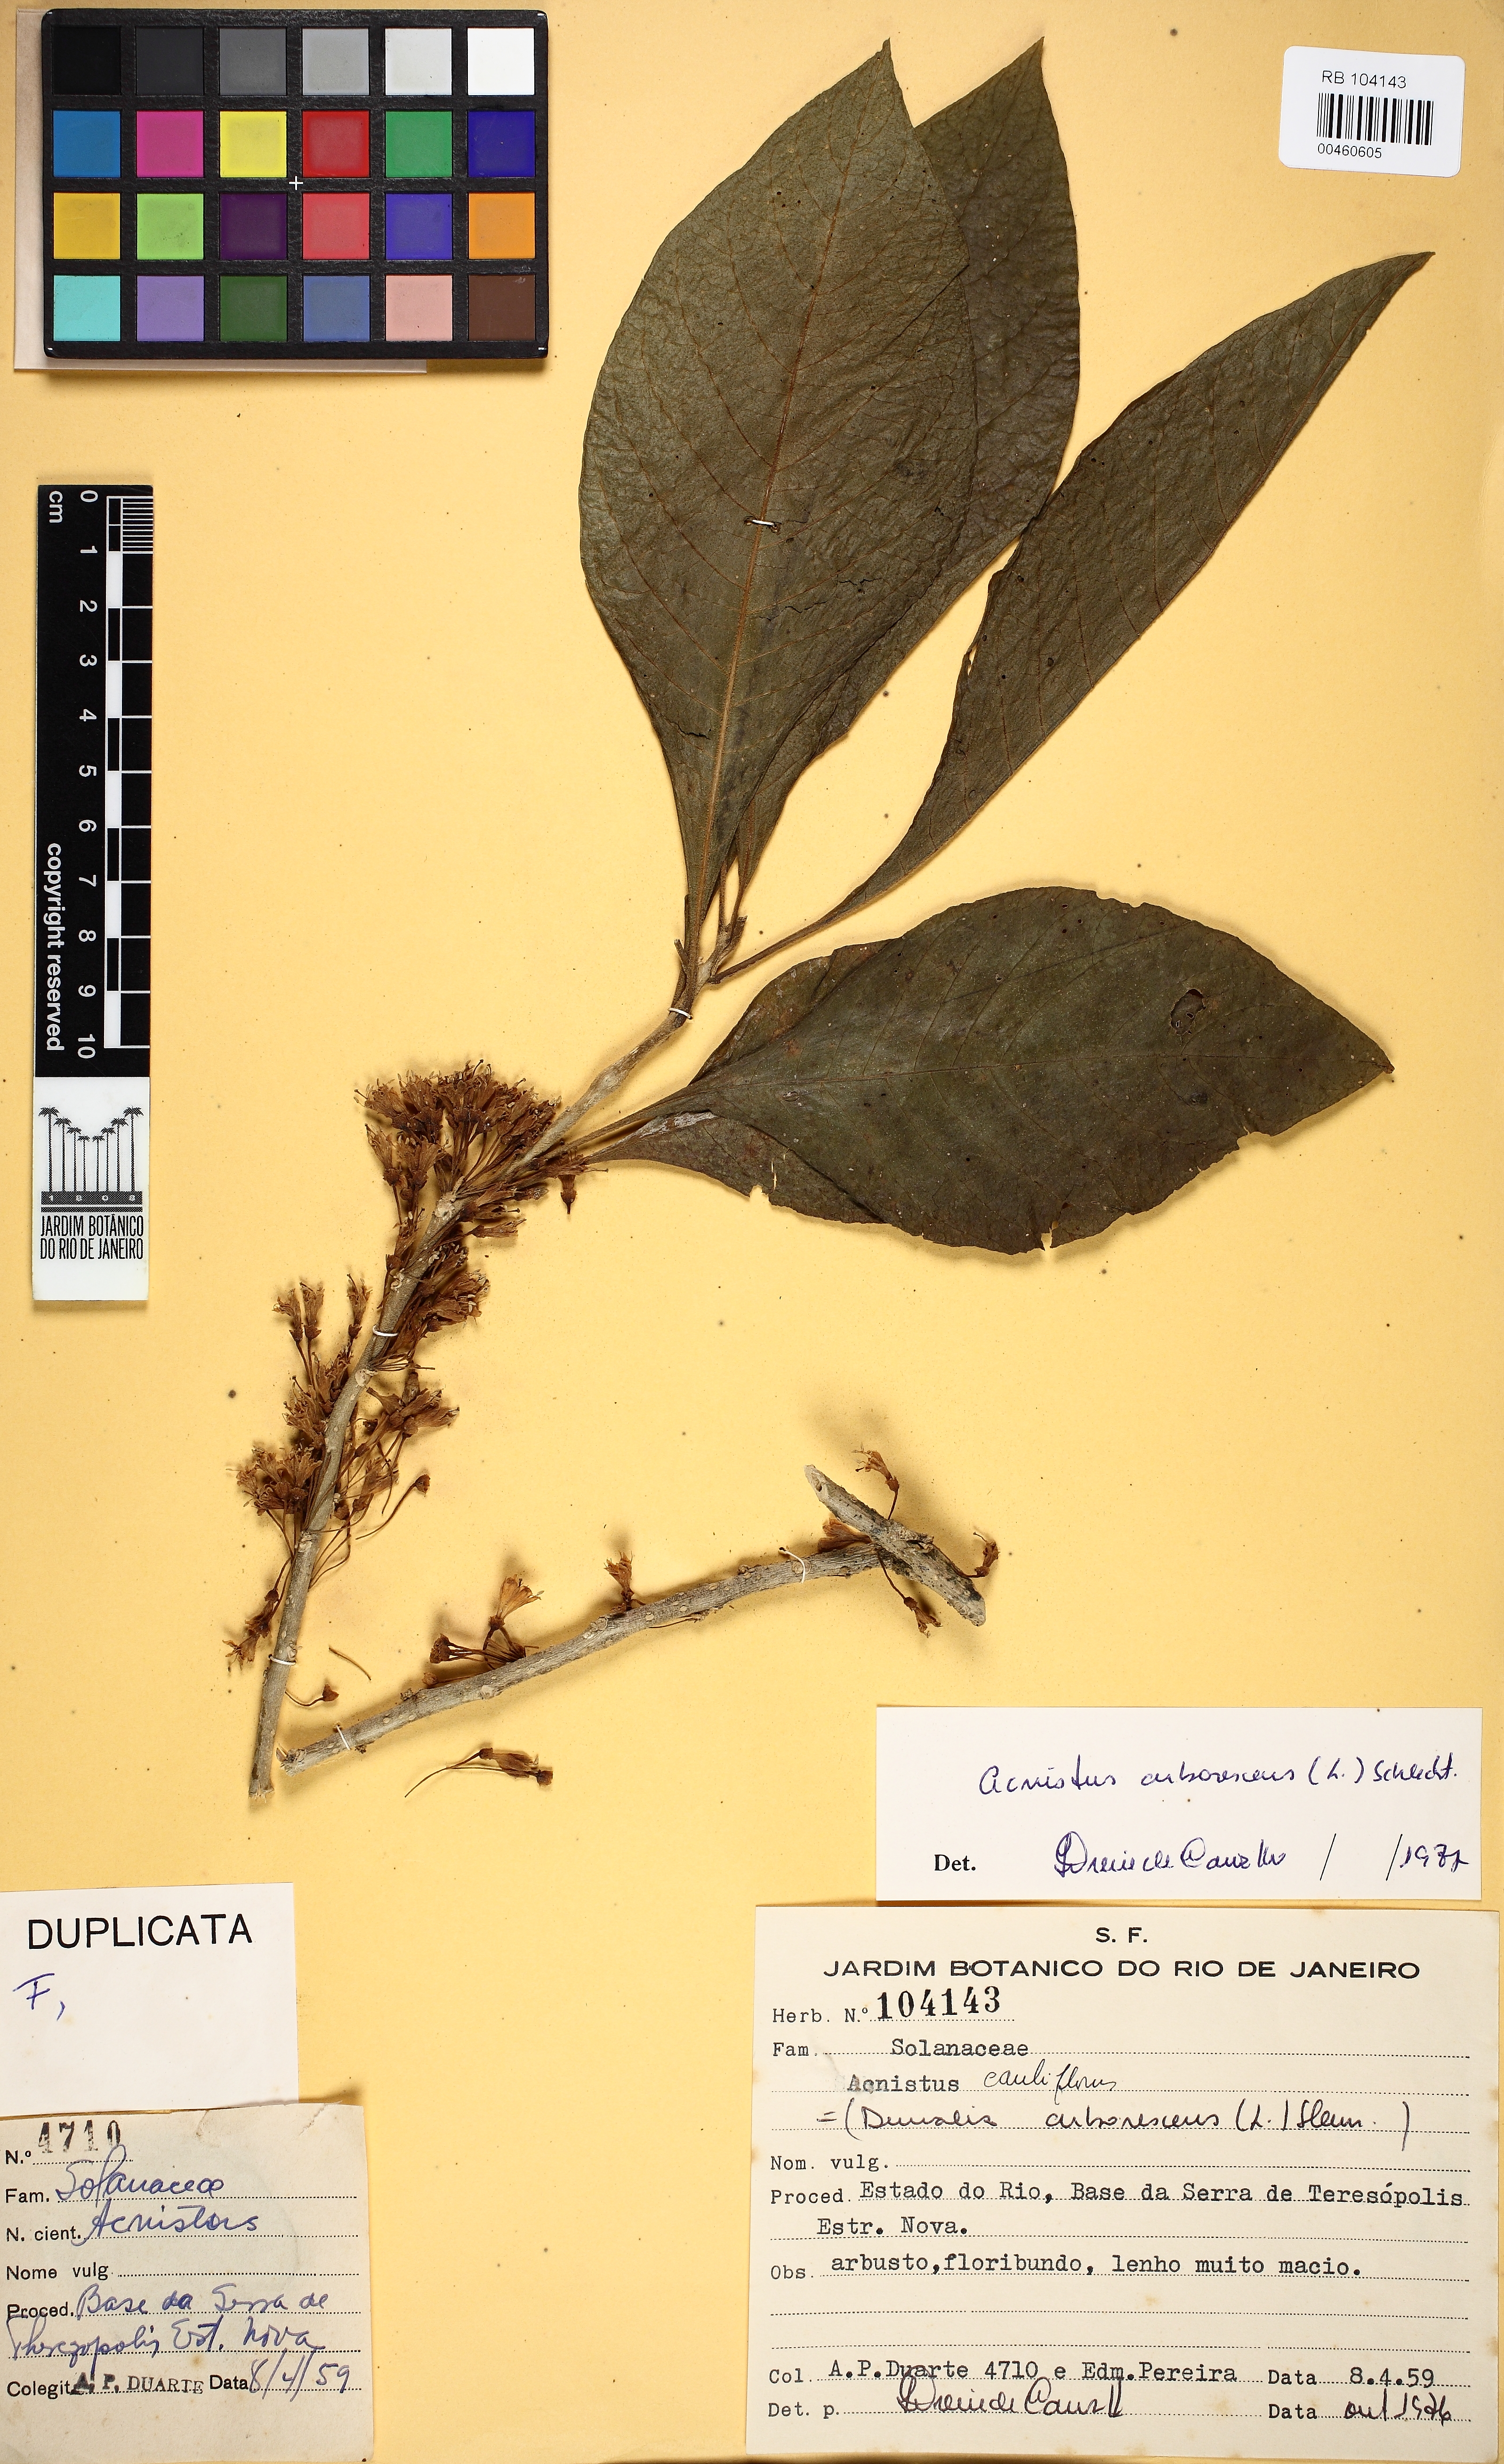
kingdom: Plantae
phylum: Tracheophyta
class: Magnoliopsida
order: Solanales
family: Solanaceae
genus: Iochroma
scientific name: Iochroma arborescens
